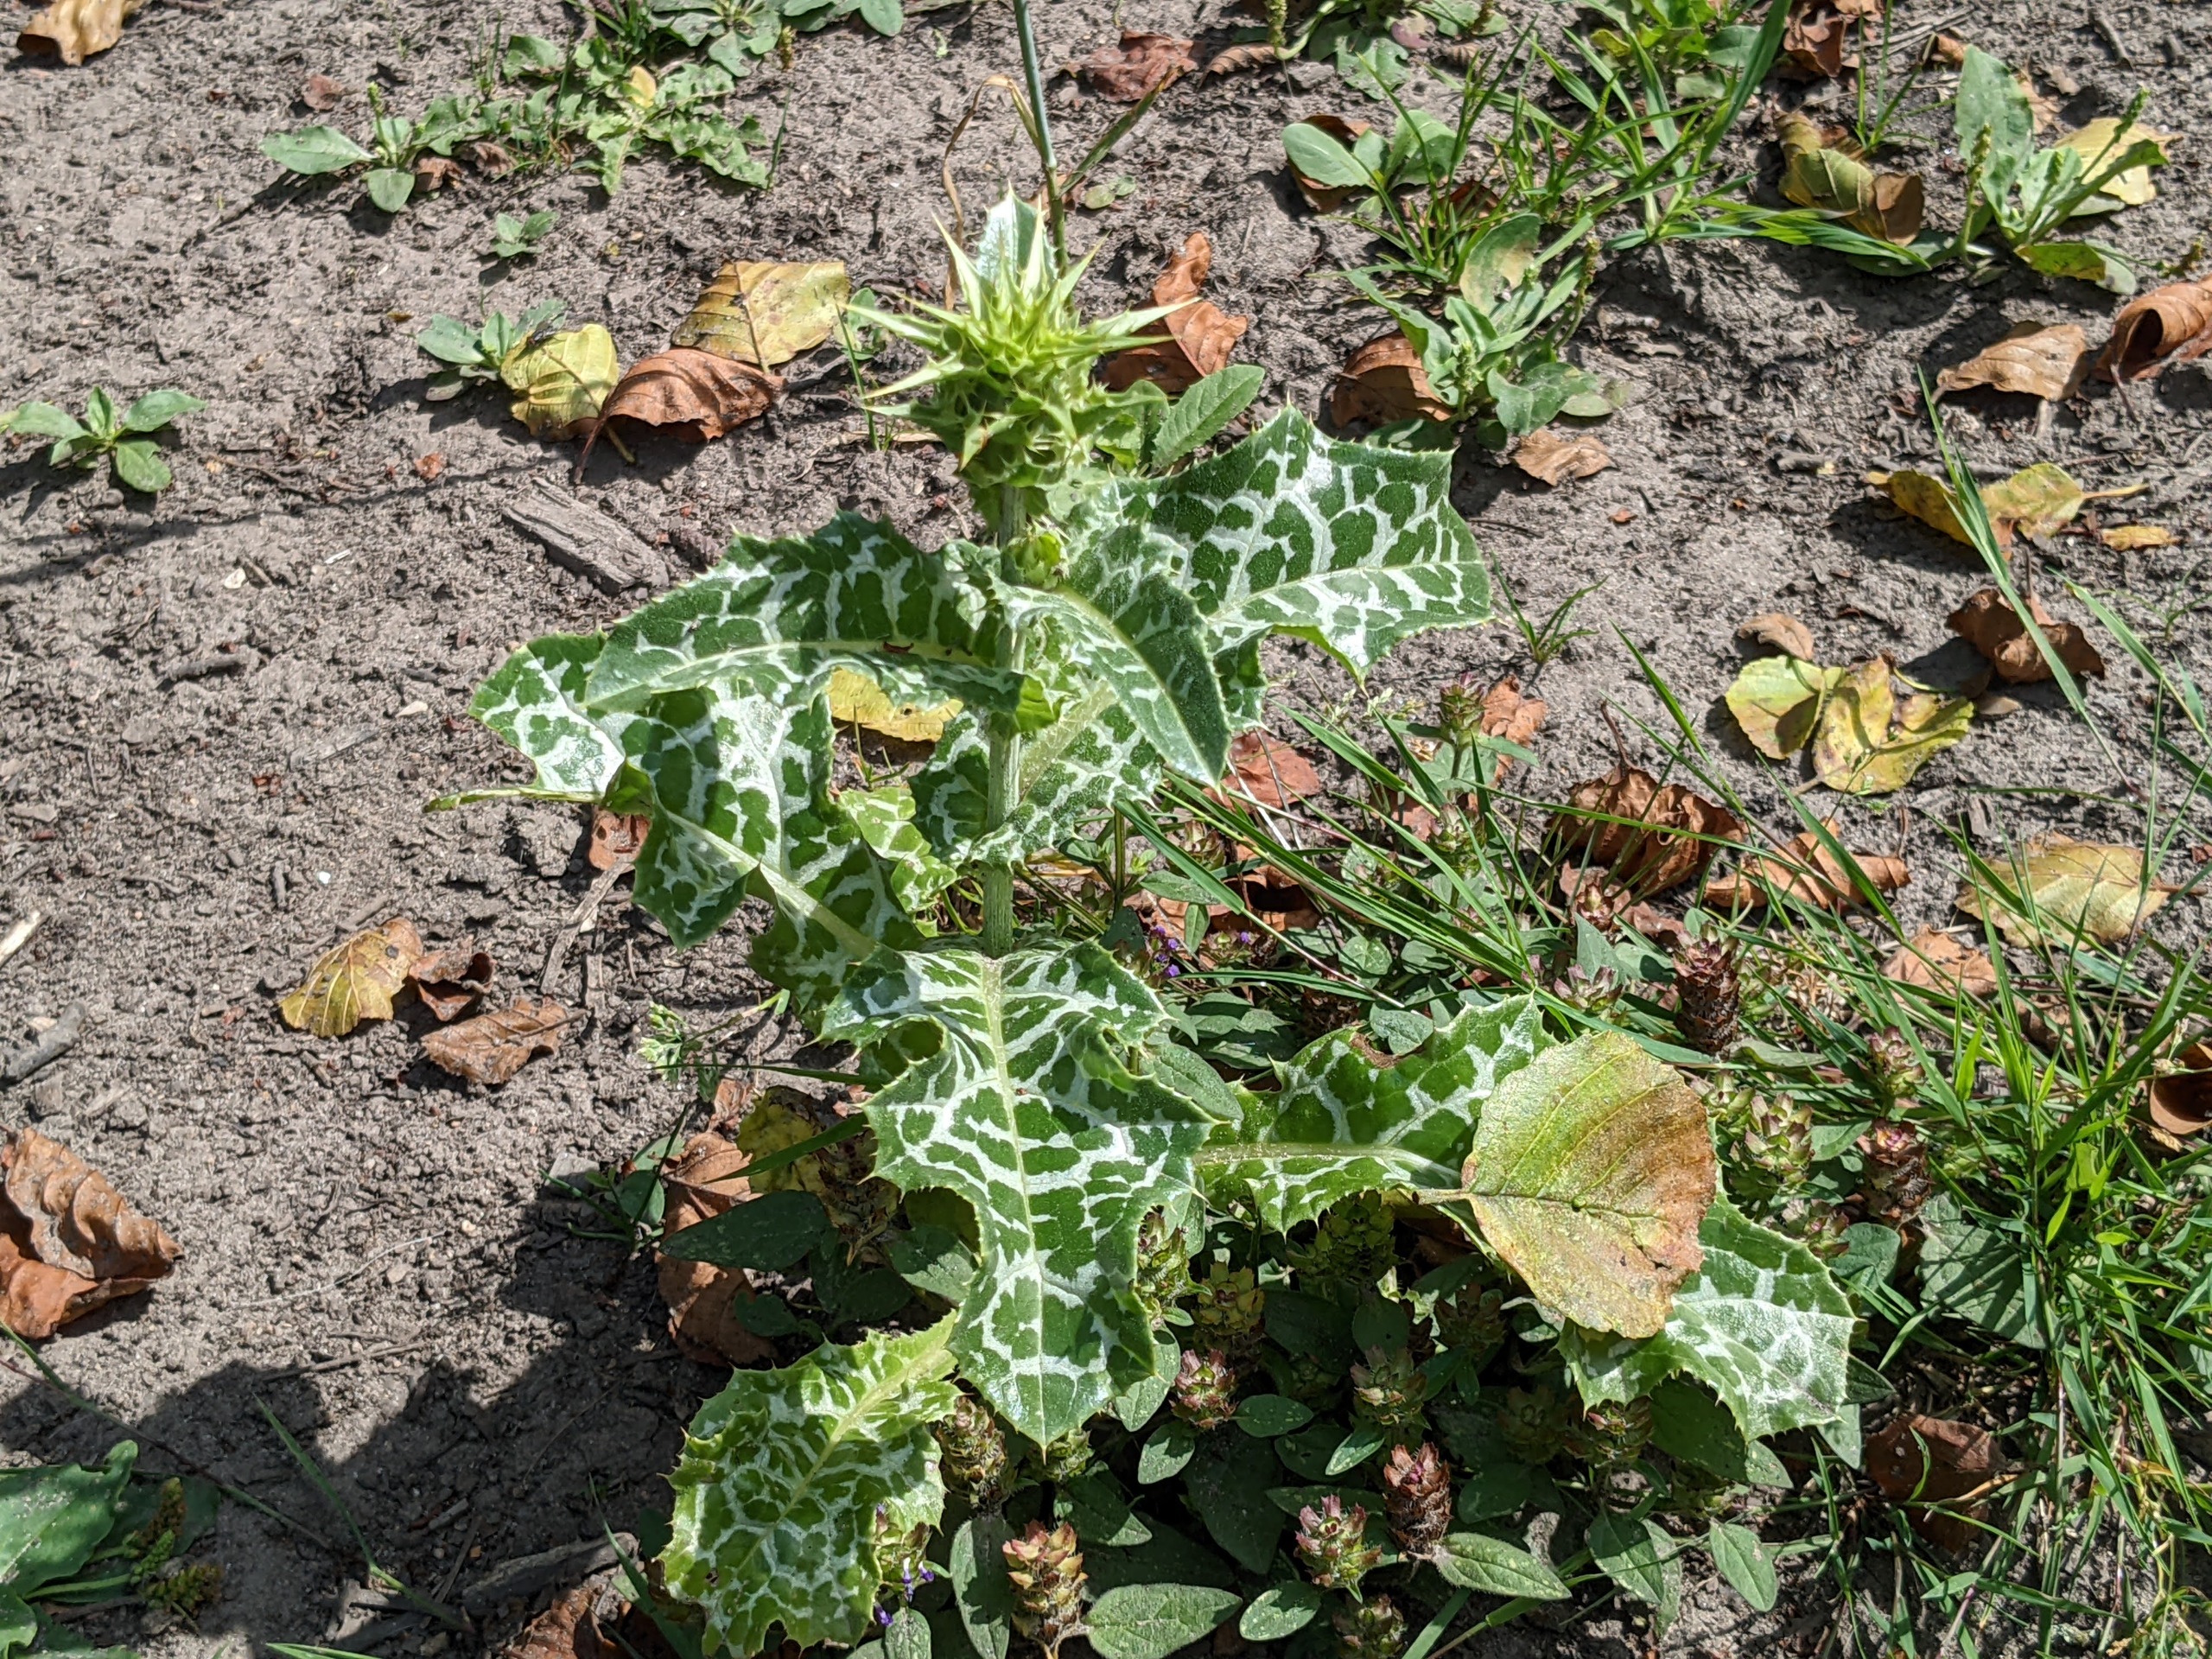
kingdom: Plantae
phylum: Tracheophyta
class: Magnoliopsida
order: Asterales
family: Asteraceae
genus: Silybum
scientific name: Silybum marianum
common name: Marietidsel
